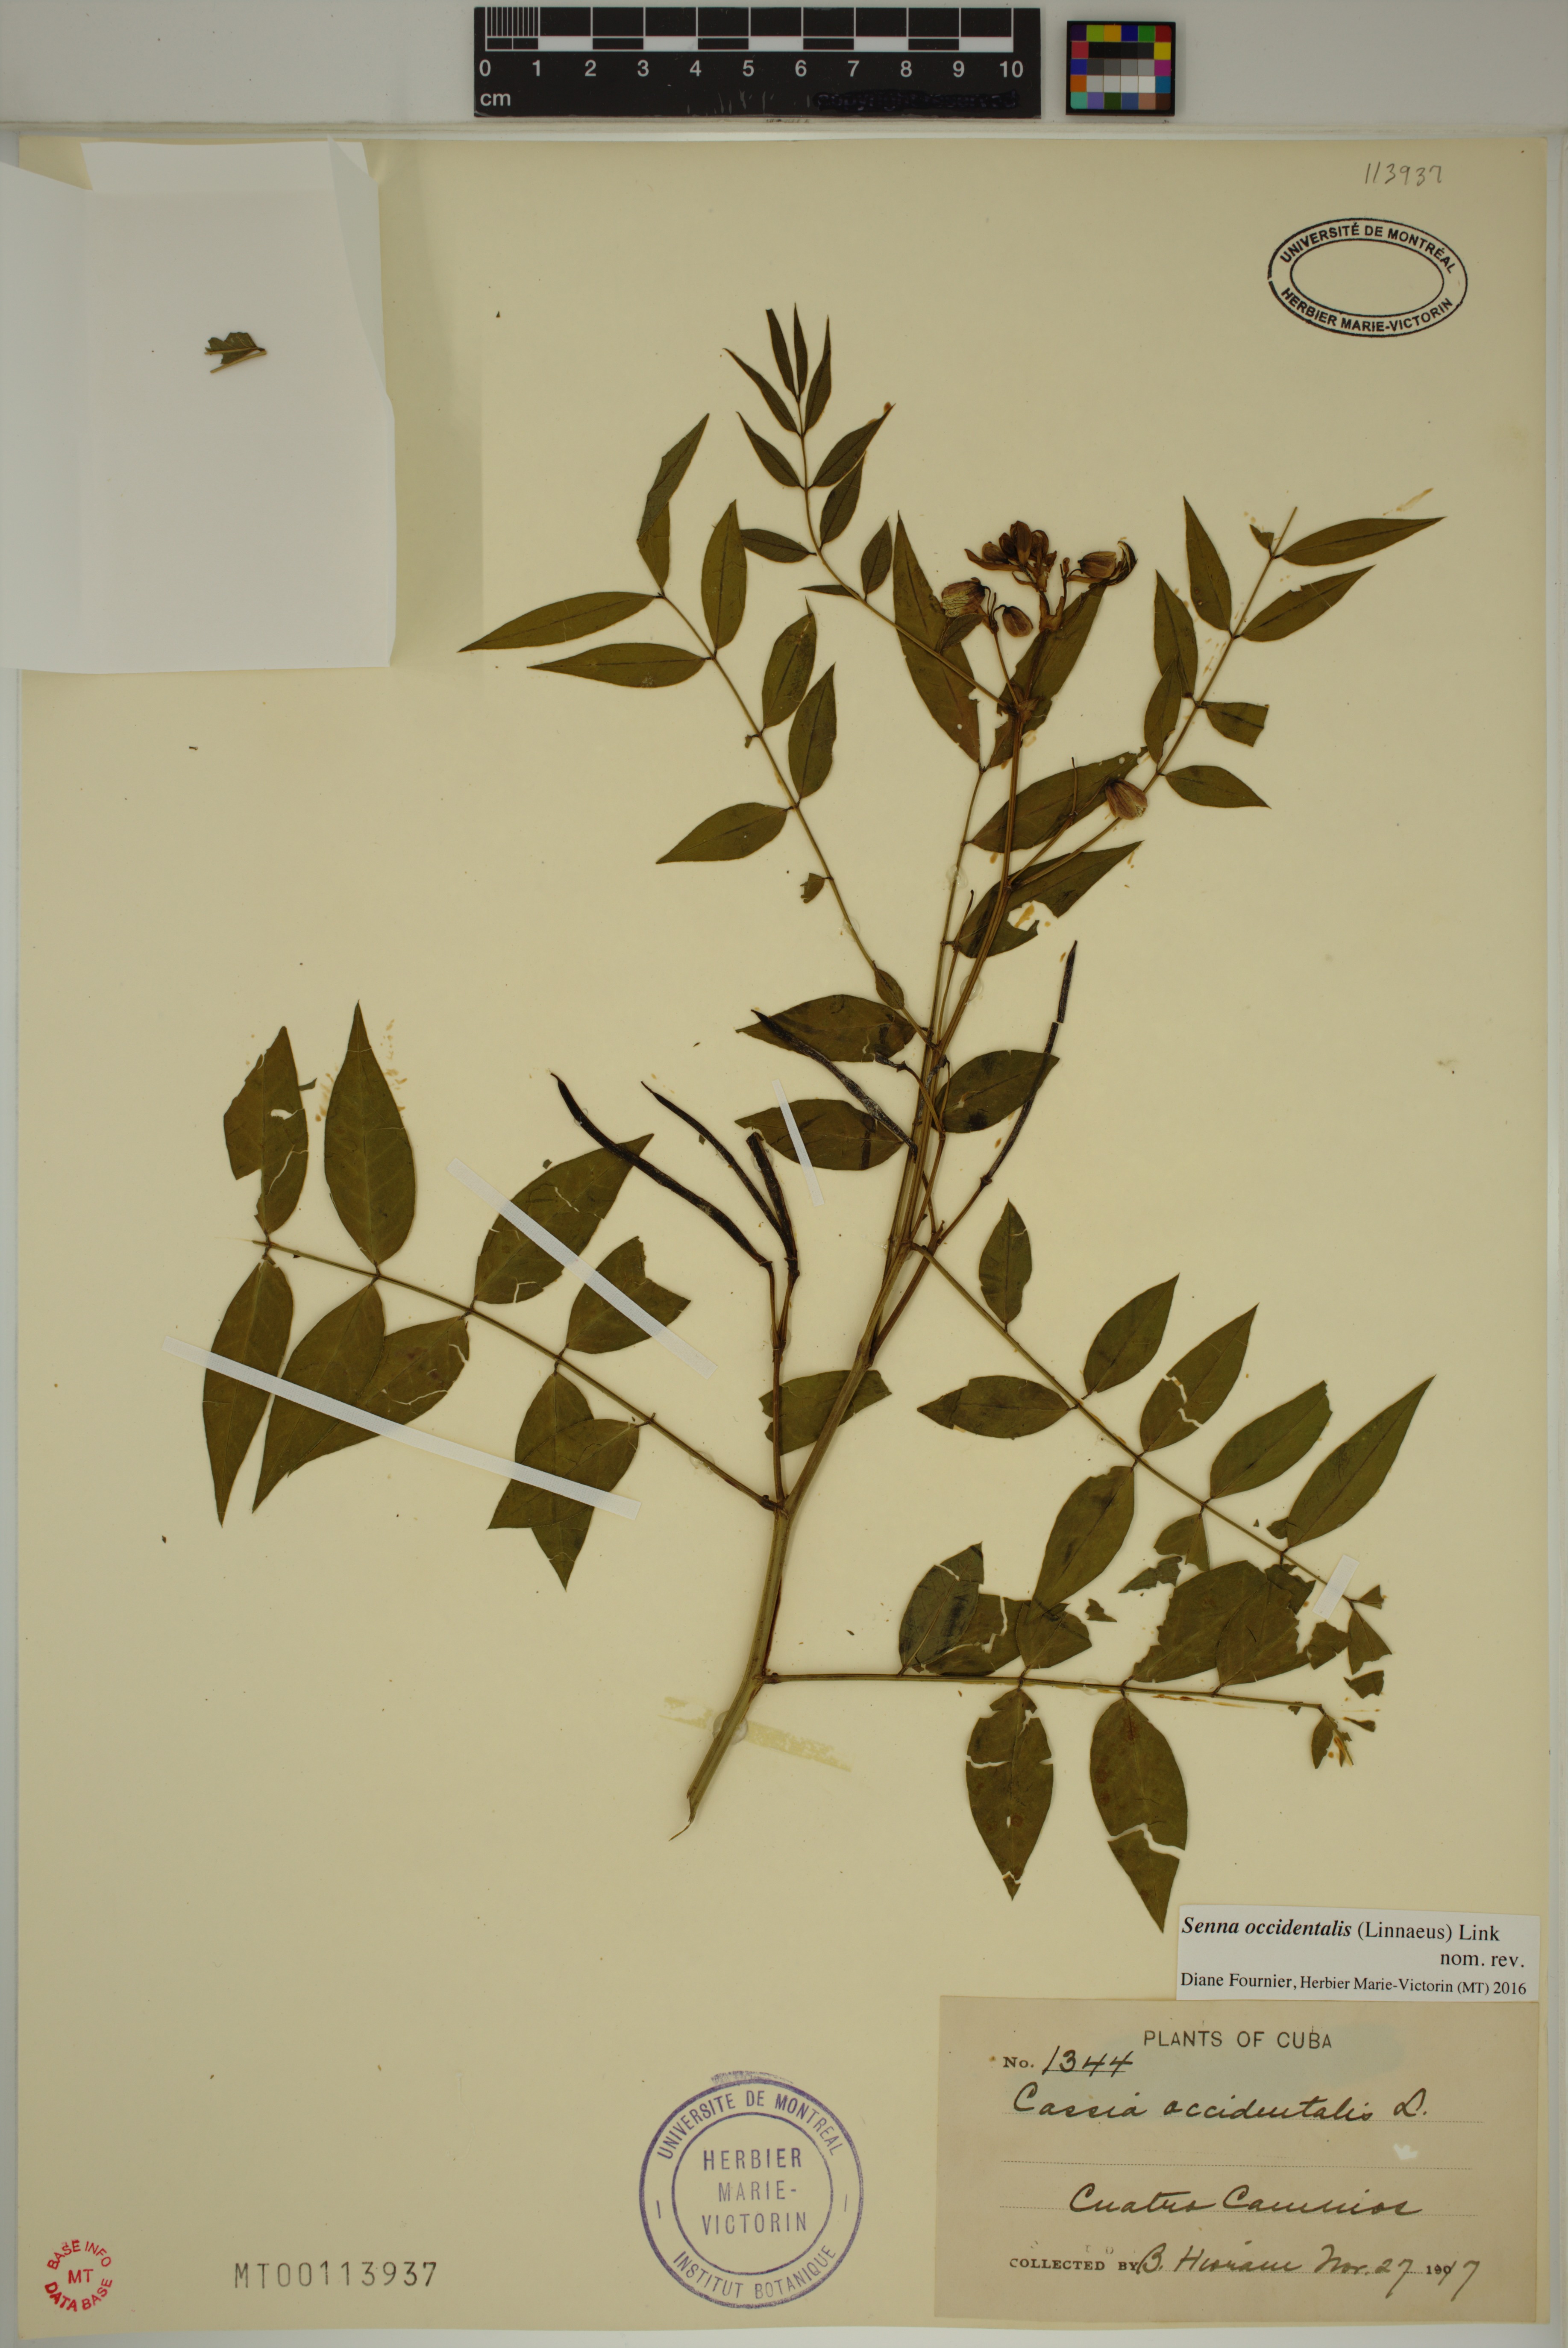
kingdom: Plantae
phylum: Tracheophyta
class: Magnoliopsida
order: Fabales
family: Fabaceae
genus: Senna
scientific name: Senna occidentalis
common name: Septicweed
